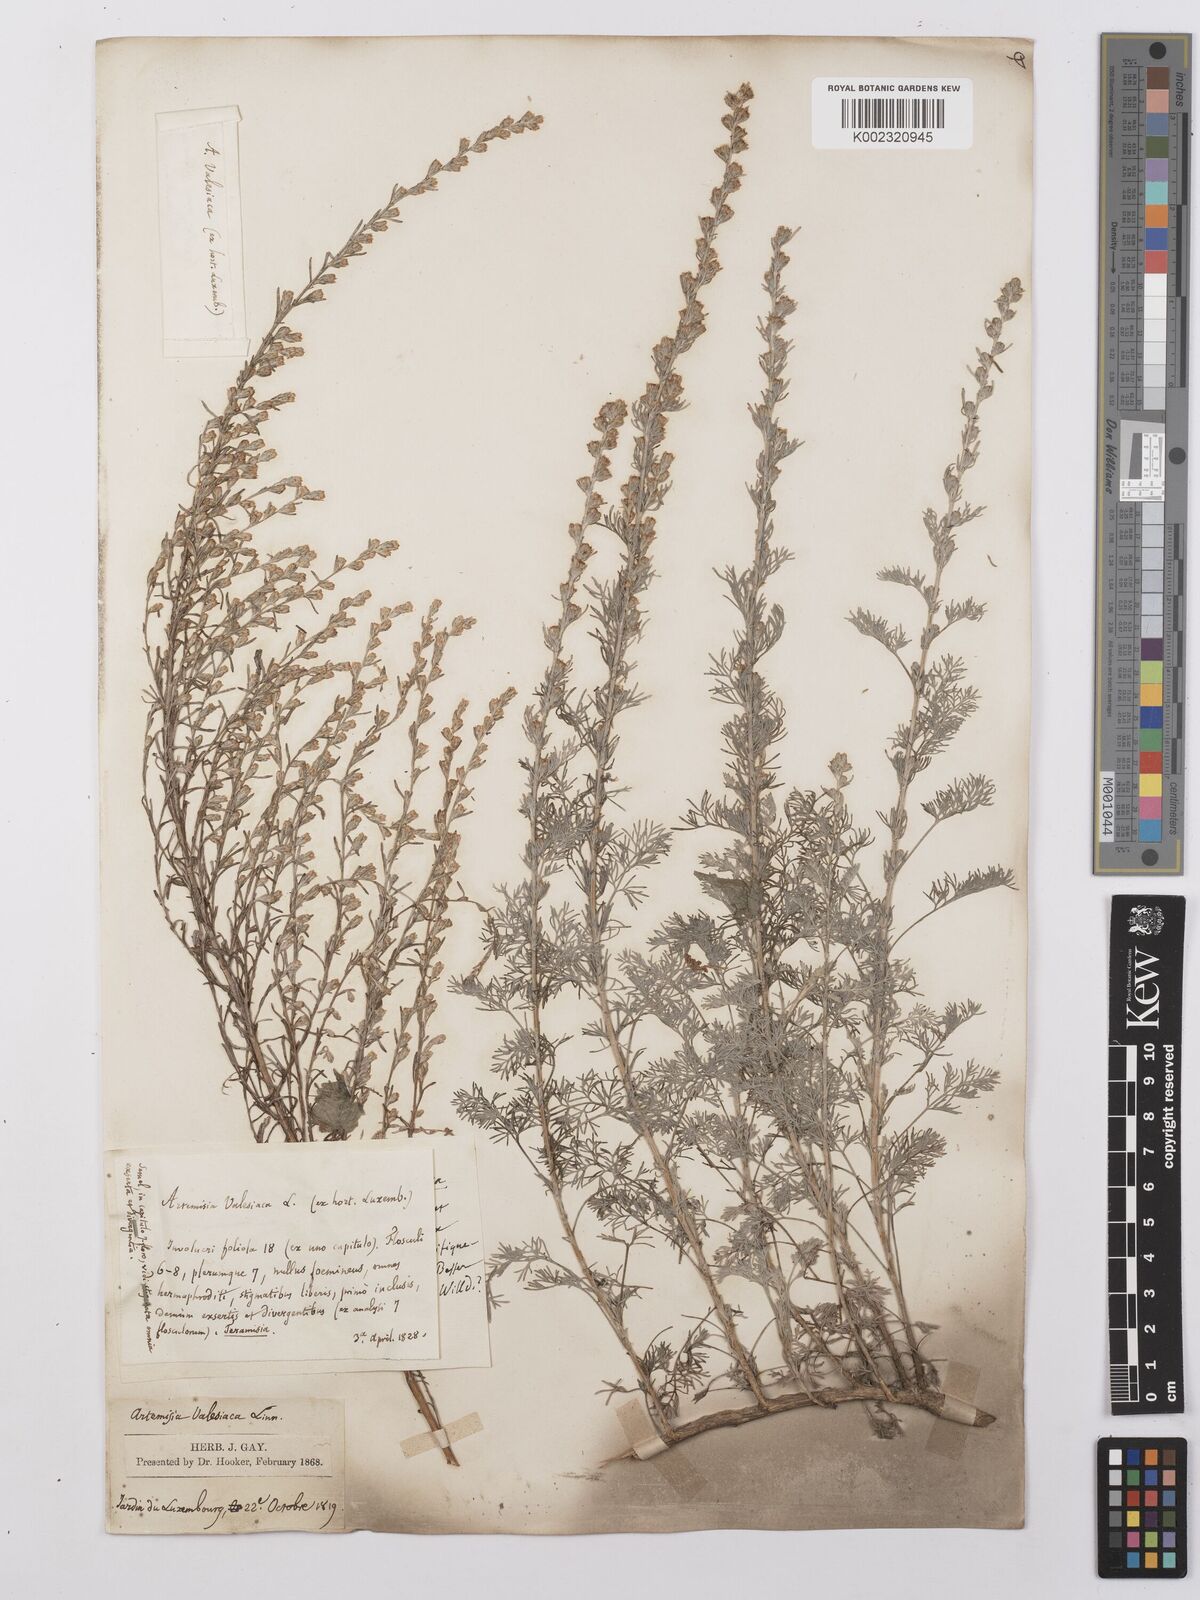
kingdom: Plantae
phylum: Tracheophyta
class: Magnoliopsida
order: Asterales
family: Asteraceae
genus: Artemisia
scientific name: Artemisia vallesiaca
